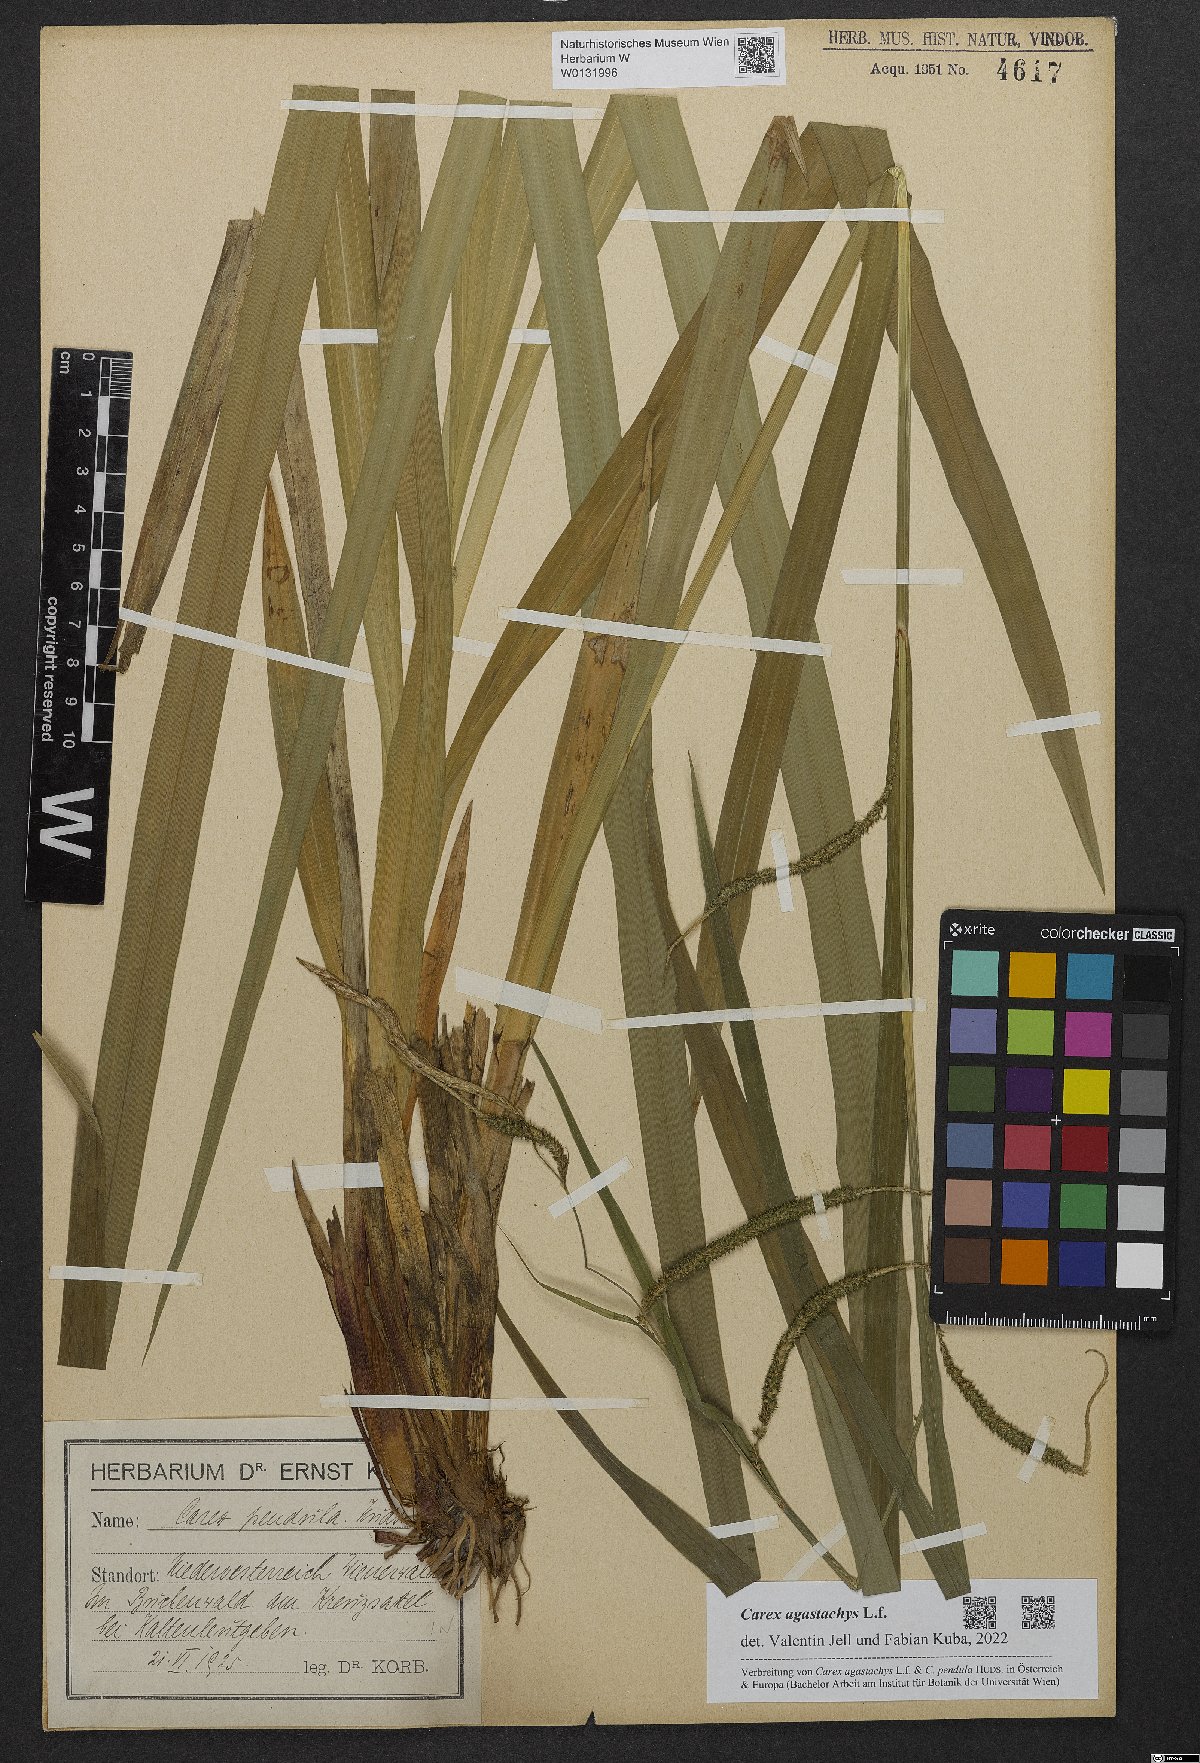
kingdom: Plantae
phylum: Tracheophyta
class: Liliopsida
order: Poales
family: Cyperaceae
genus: Carex
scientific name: Carex agastachys
